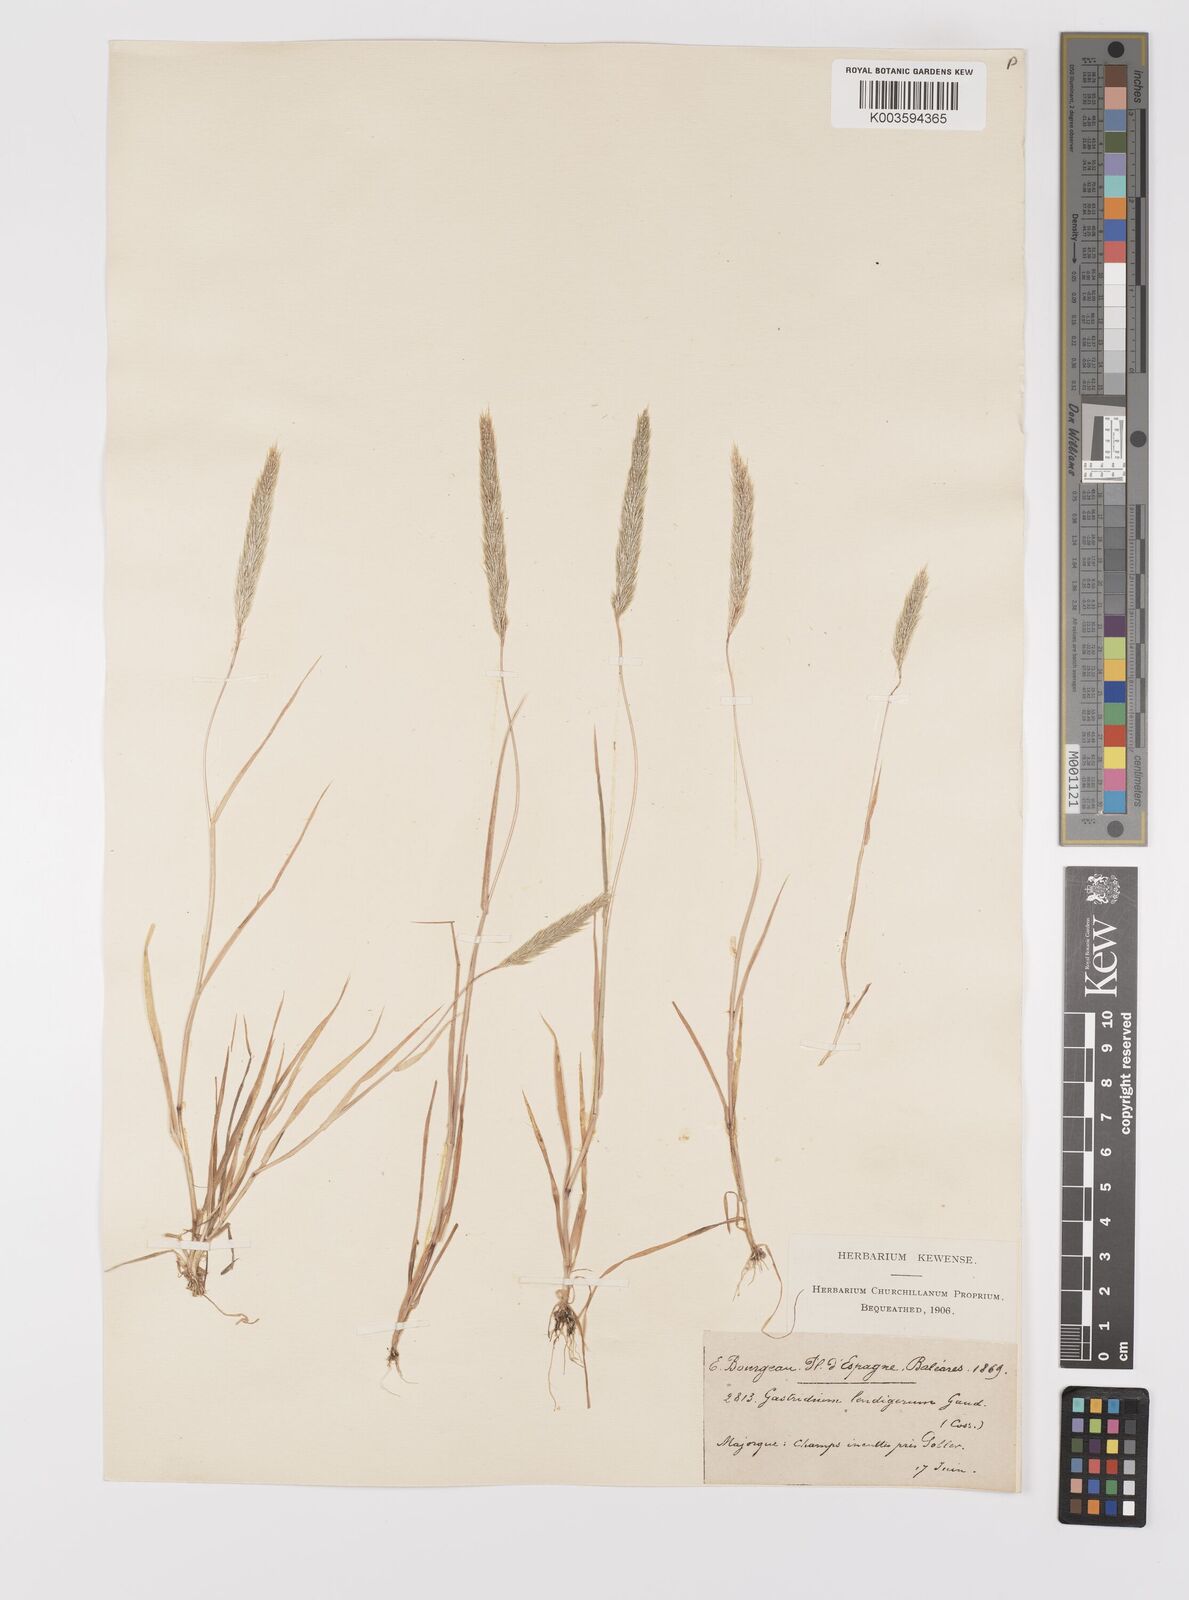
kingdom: Plantae
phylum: Tracheophyta
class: Liliopsida
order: Poales
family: Poaceae
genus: Gastridium
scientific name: Gastridium phleoides
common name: Nit grass
